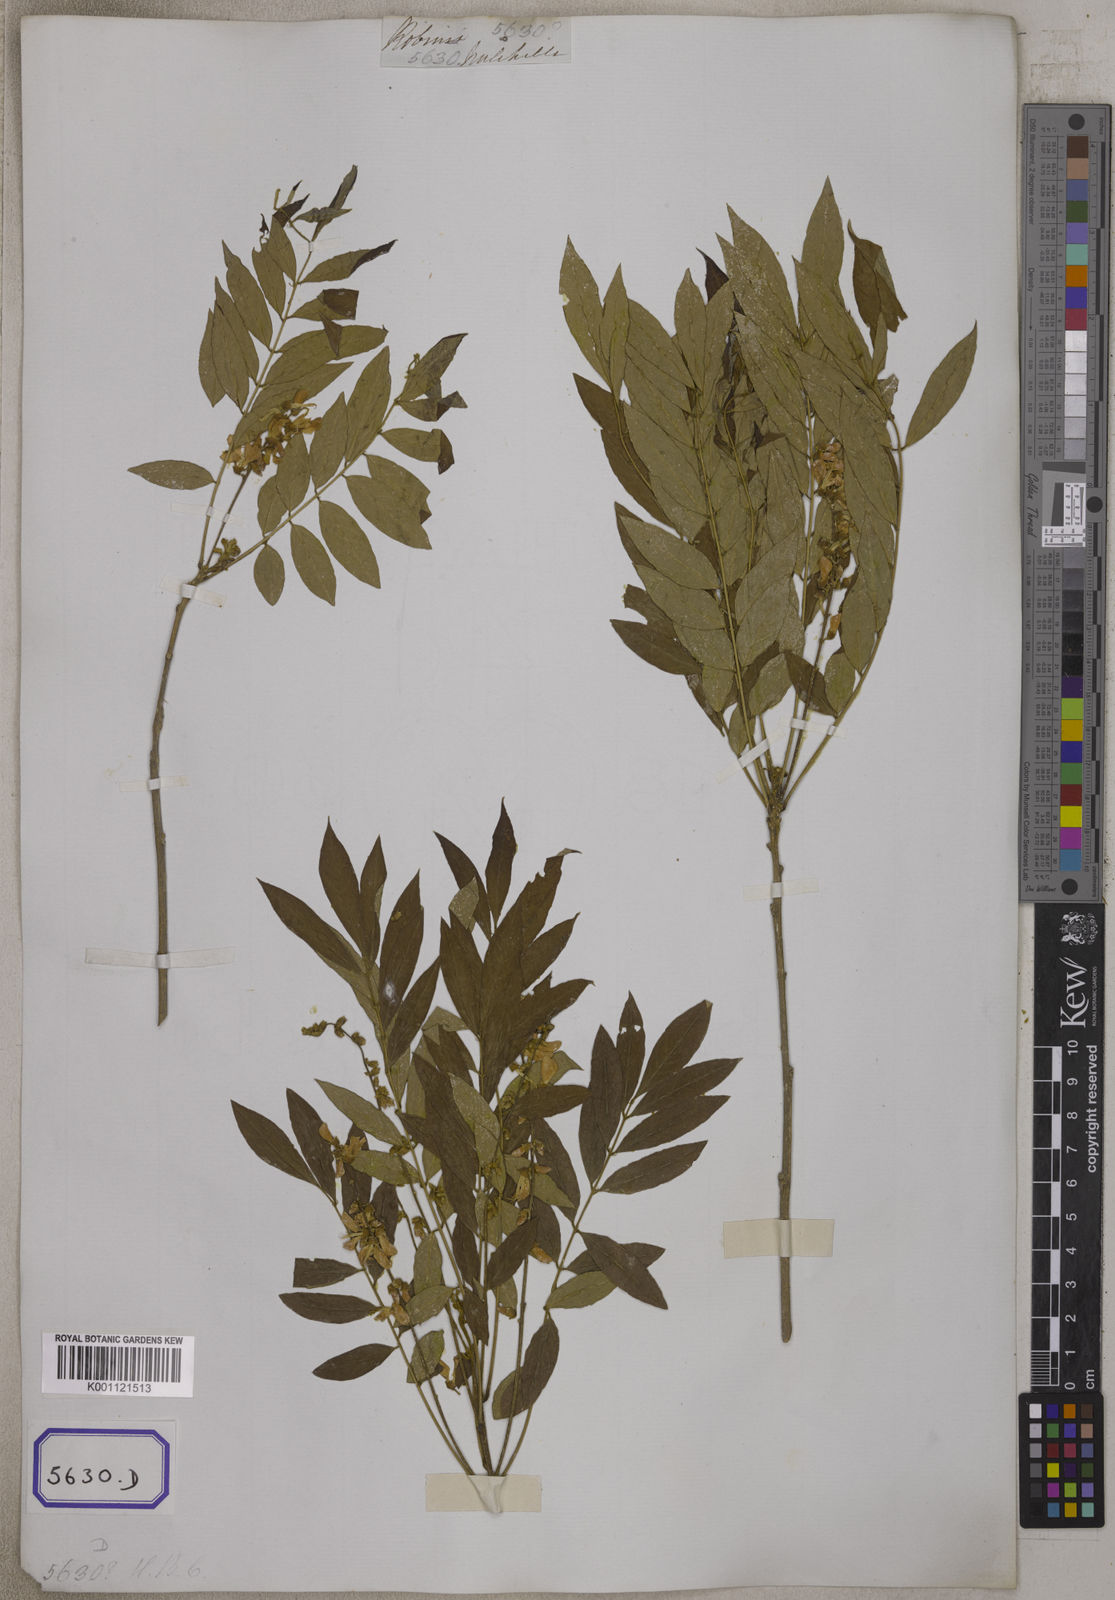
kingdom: Plantae
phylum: Tracheophyta
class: Magnoliopsida
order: Fabales
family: Fabaceae
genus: Millettia
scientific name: Millettia pulchra
